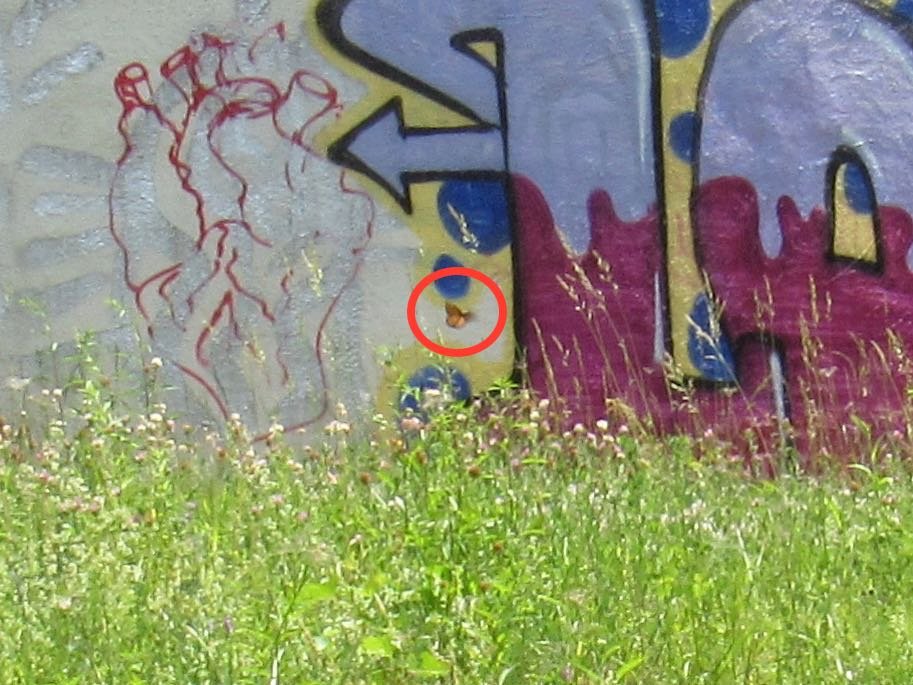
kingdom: Animalia
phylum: Arthropoda
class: Insecta
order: Lepidoptera
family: Nymphalidae
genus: Danaus
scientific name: Danaus plexippus
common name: Monarch
